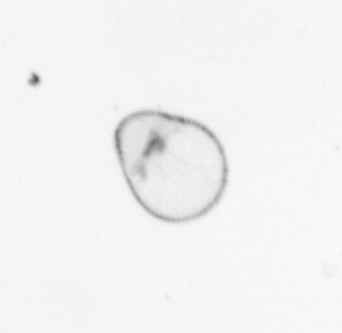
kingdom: Chromista
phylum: Myzozoa
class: Dinophyceae
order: Noctilucales
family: Noctilucaceae
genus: Noctiluca
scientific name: Noctiluca scintillans
